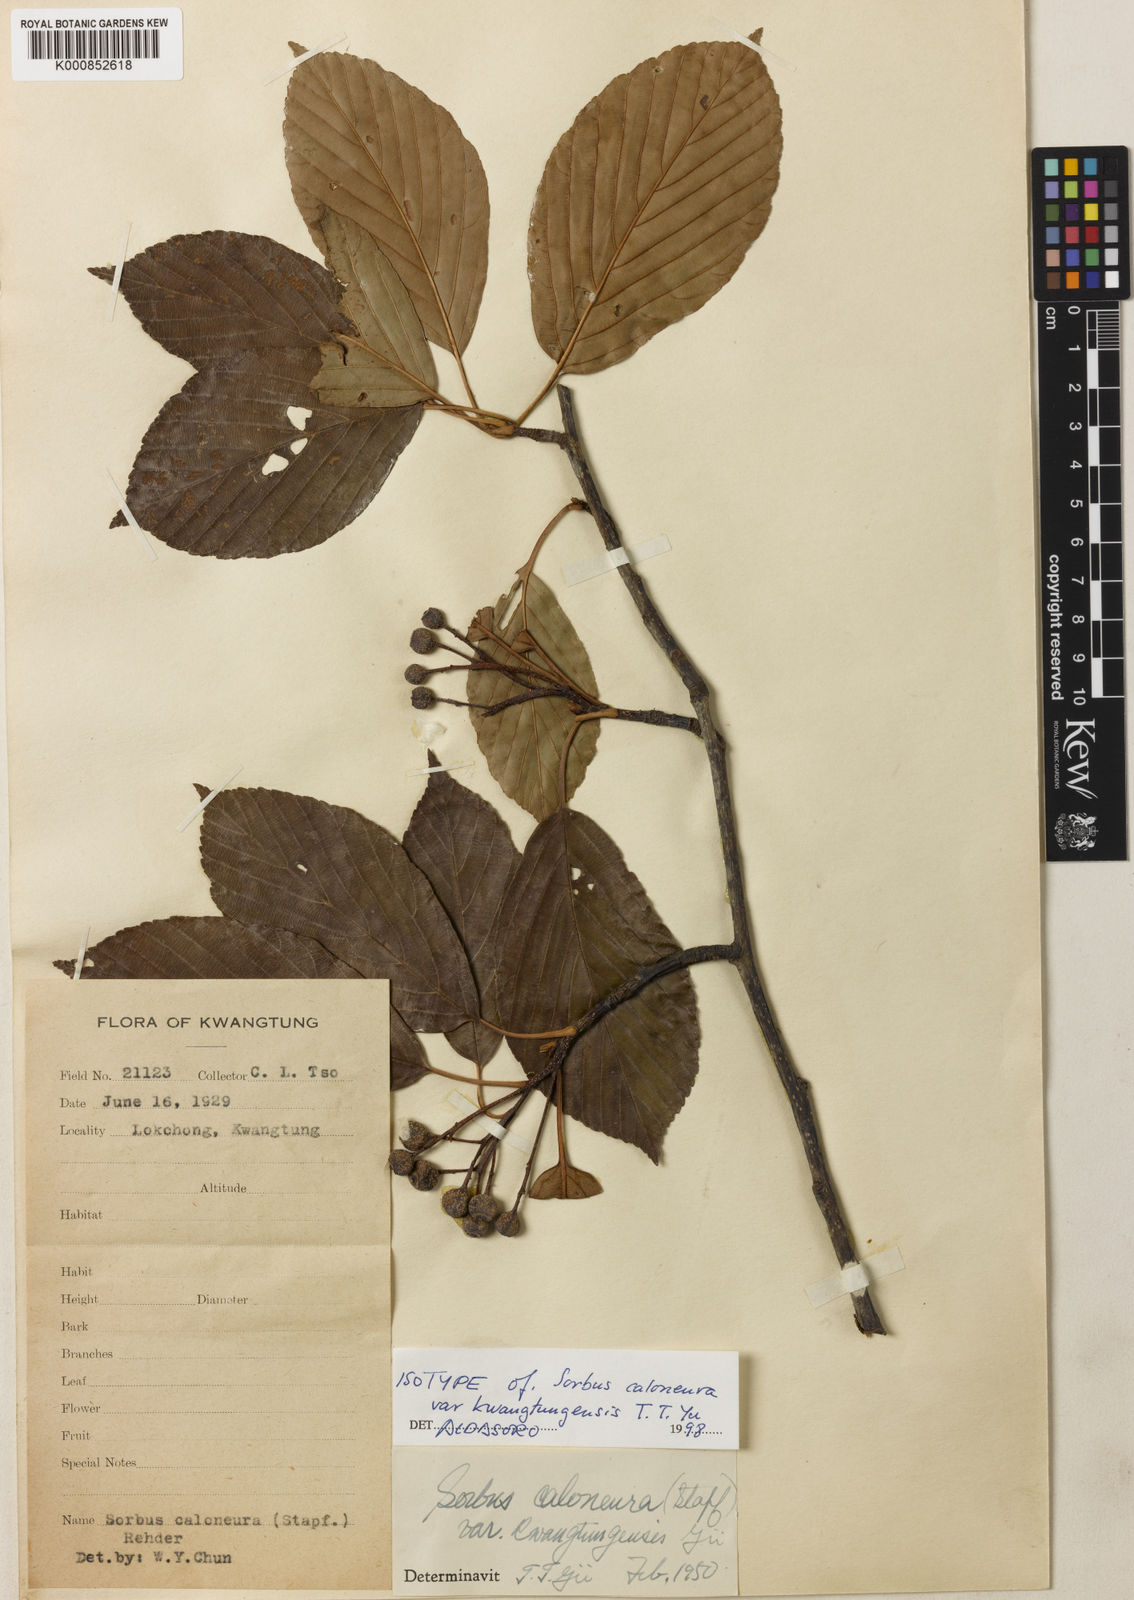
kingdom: Plantae
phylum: Tracheophyta
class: Magnoliopsida
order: Rosales
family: Rosaceae
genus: Sorbus
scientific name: Sorbus caloneura
